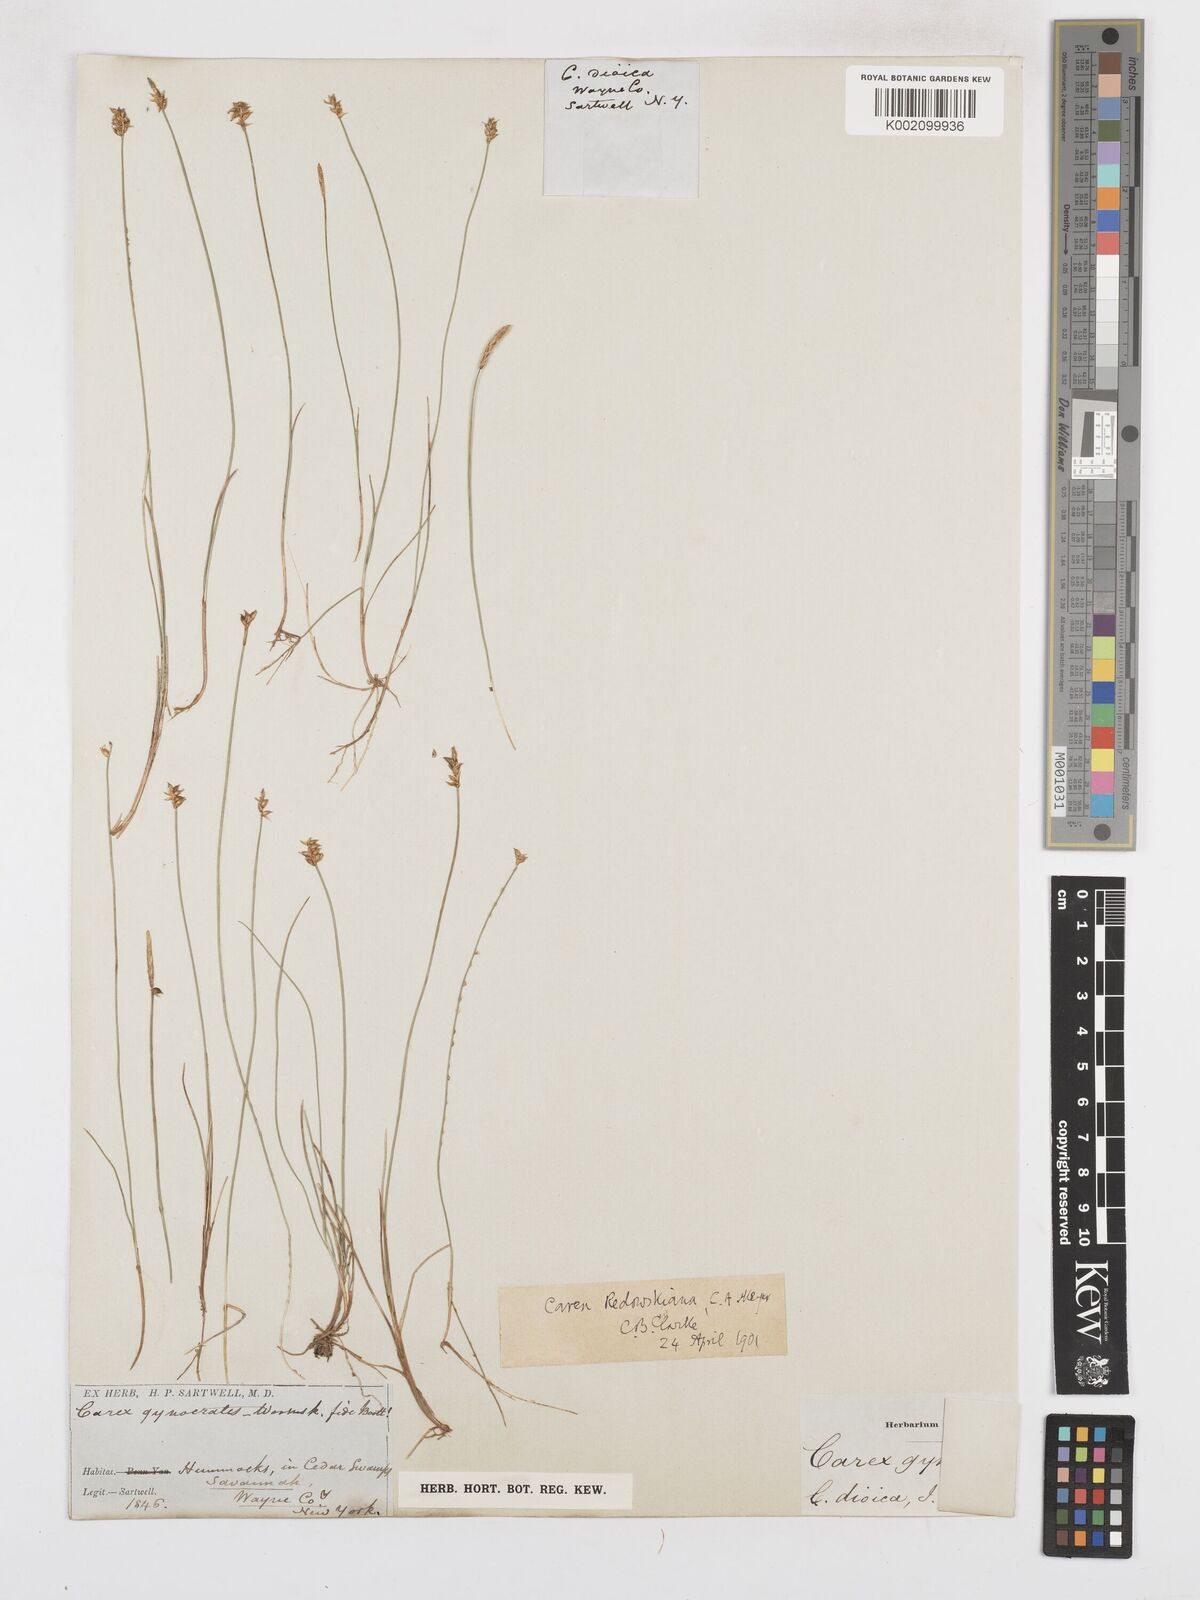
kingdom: Plantae
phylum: Tracheophyta
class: Liliopsida
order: Poales
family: Cyperaceae
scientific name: Cyperaceae
